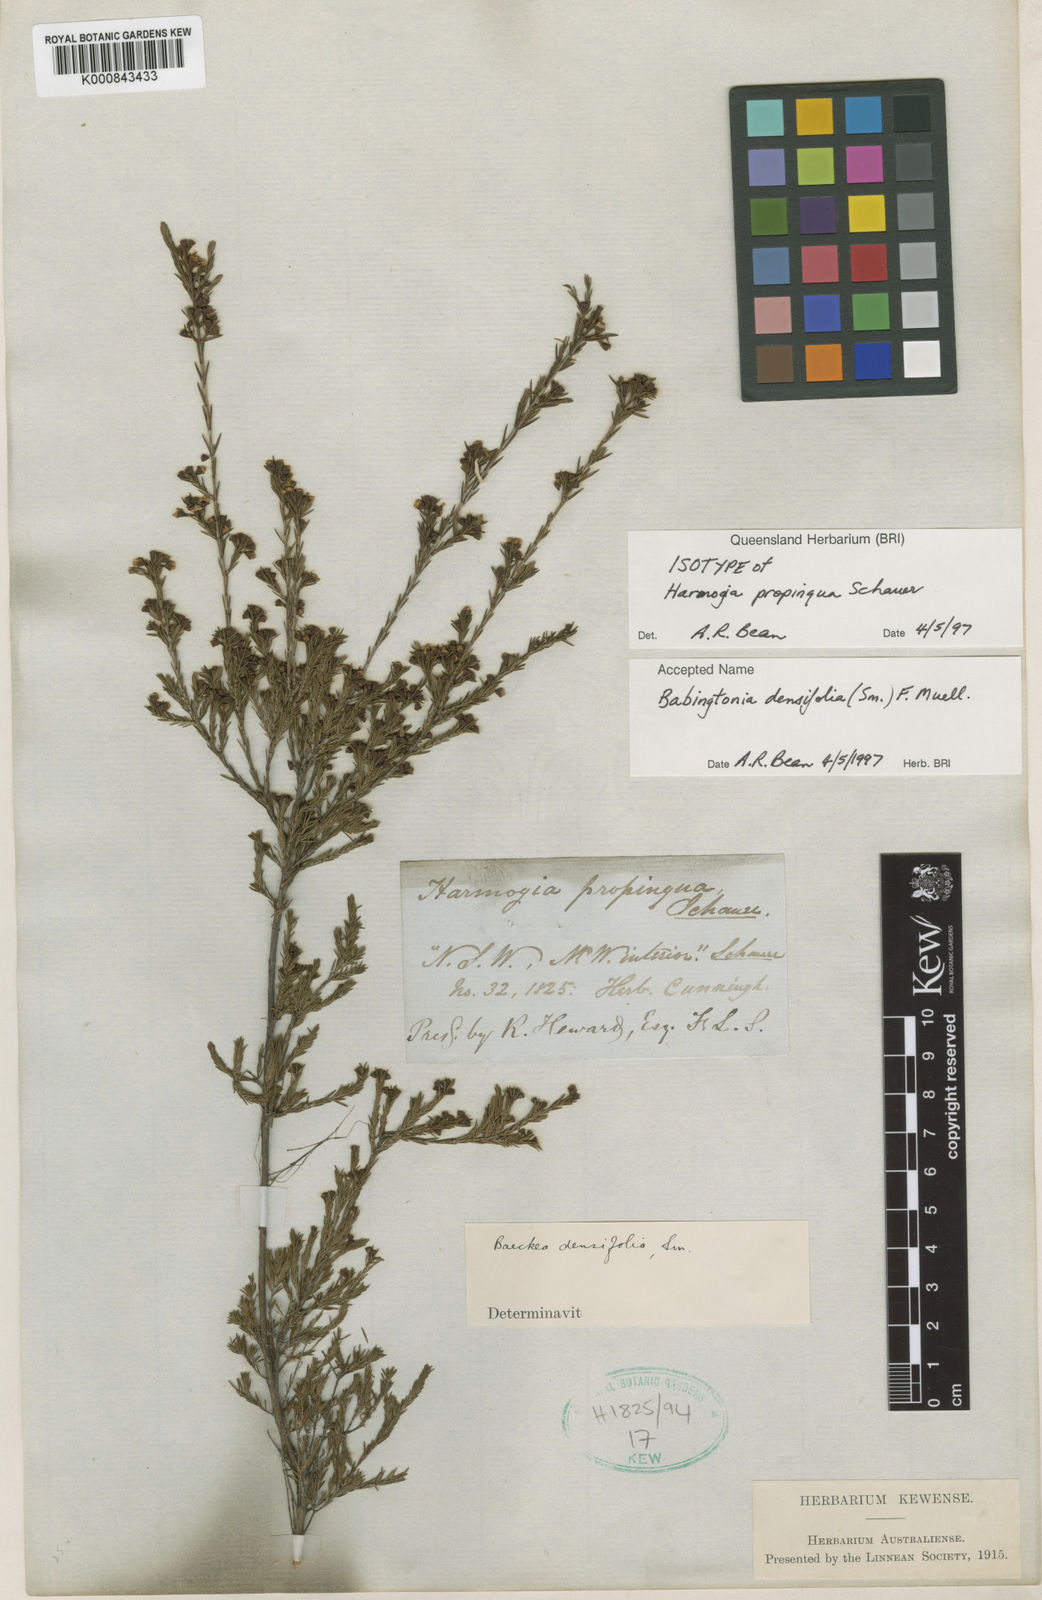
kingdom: Plantae
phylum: Tracheophyta
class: Magnoliopsida
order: Myrtales
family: Myrtaceae
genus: Harmogia
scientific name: Harmogia densifolia
